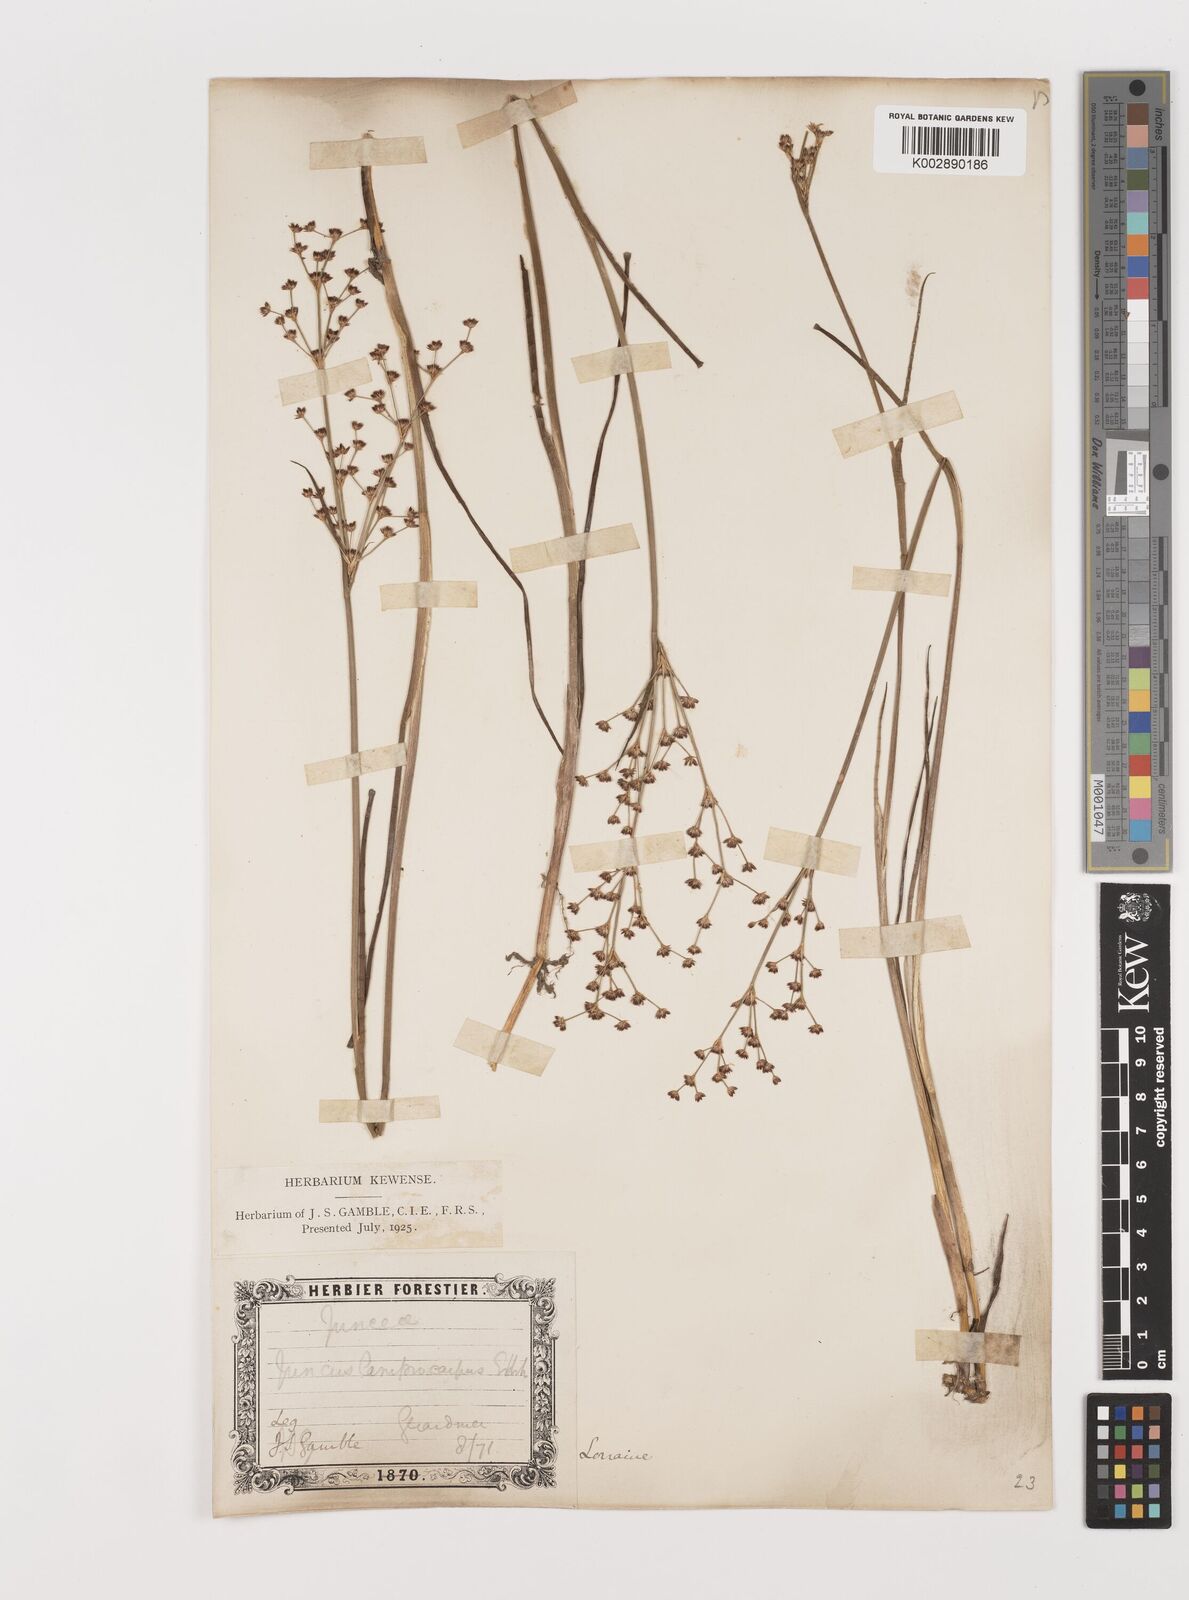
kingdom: Plantae
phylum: Tracheophyta
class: Liliopsida
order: Poales
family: Juncaceae
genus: Juncus
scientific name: Juncus articulatus
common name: Jointed rush
